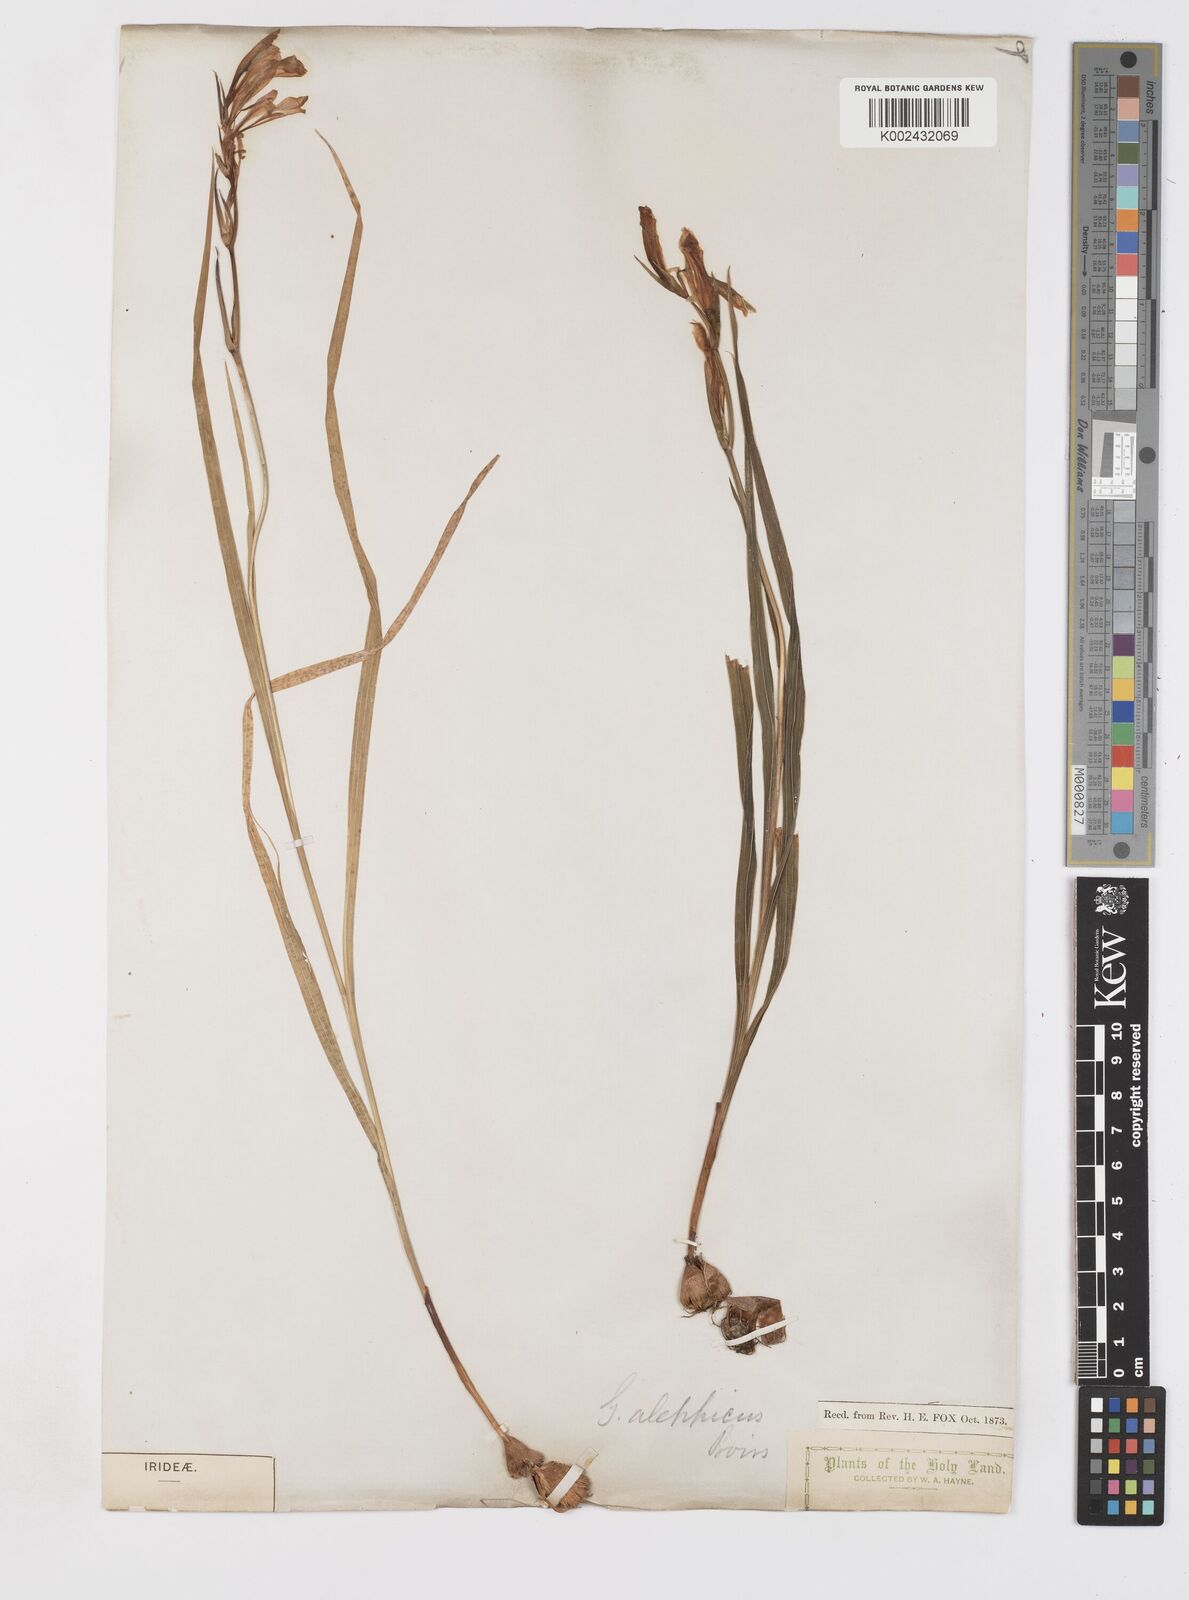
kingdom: Plantae
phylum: Tracheophyta
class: Liliopsida
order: Asparagales
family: Iridaceae
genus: Gladiolus
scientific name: Gladiolus atroviolaceus
